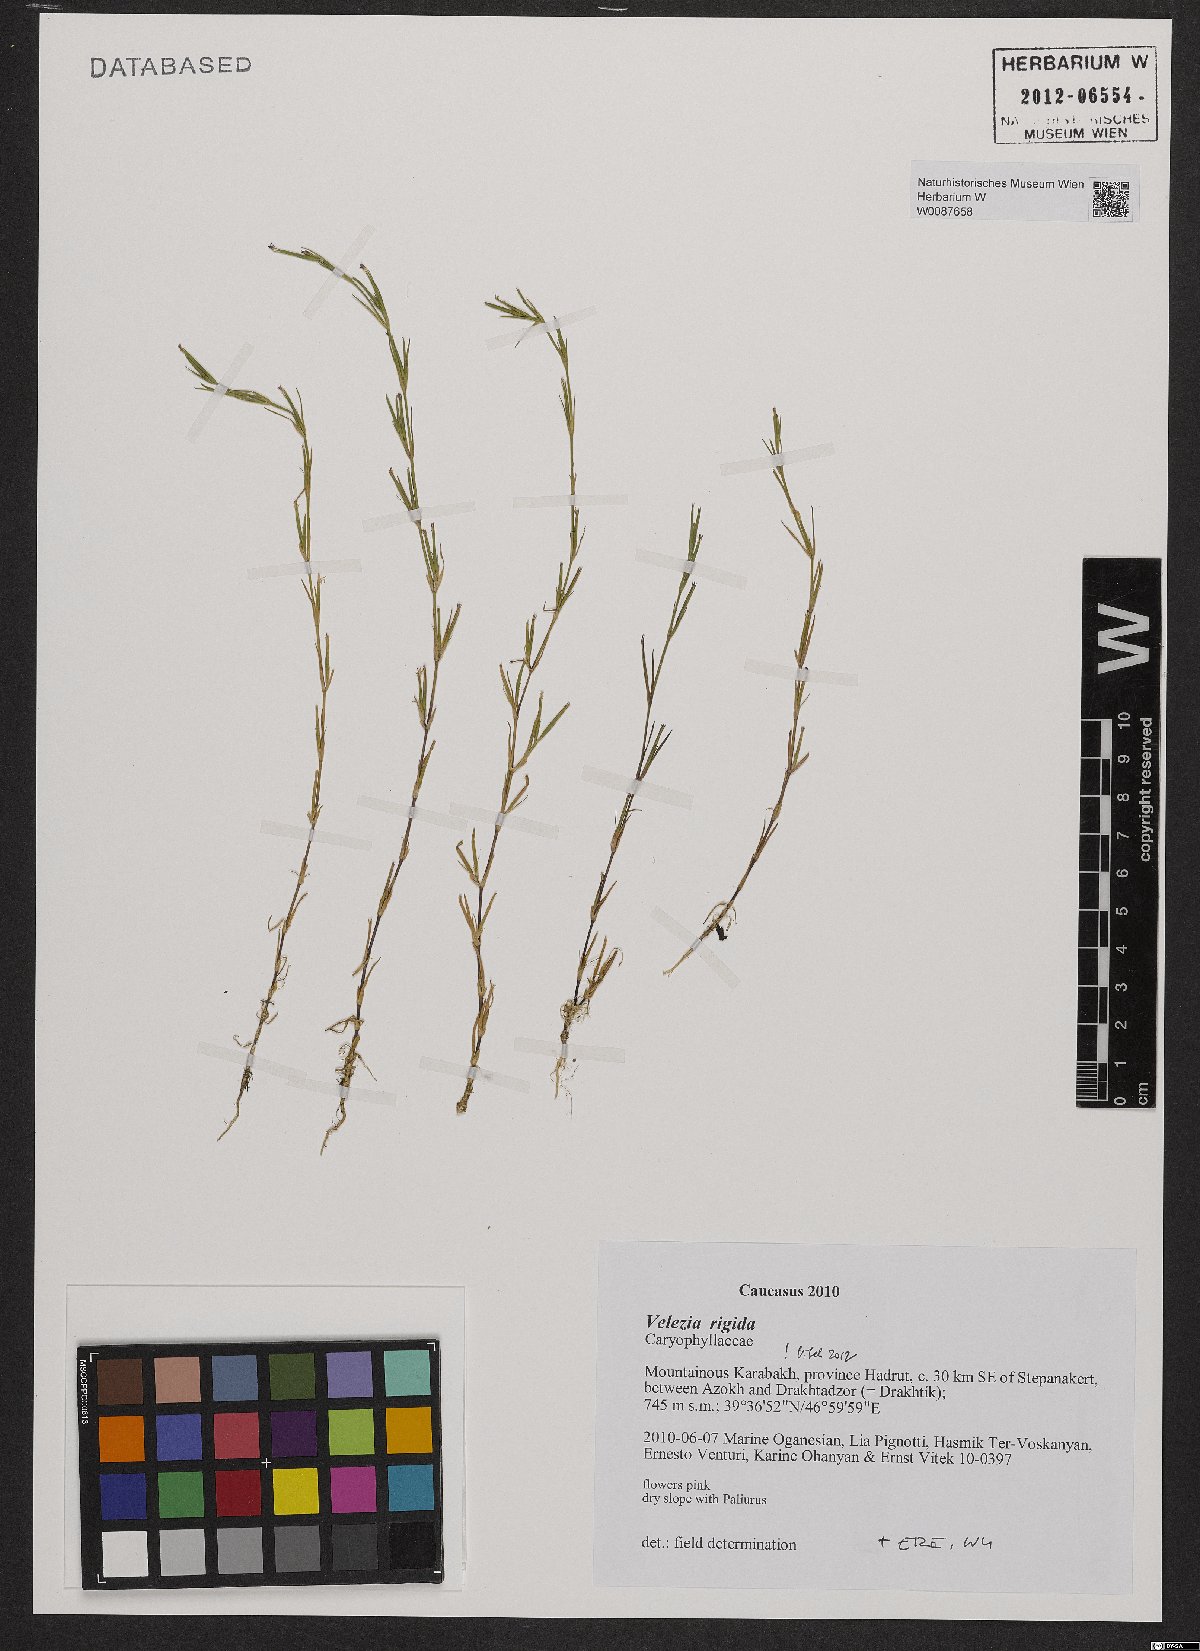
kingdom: Plantae
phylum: Tracheophyta
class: Magnoliopsida
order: Caryophyllales
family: Caryophyllaceae
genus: Dianthus
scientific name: Dianthus nudiflorus
